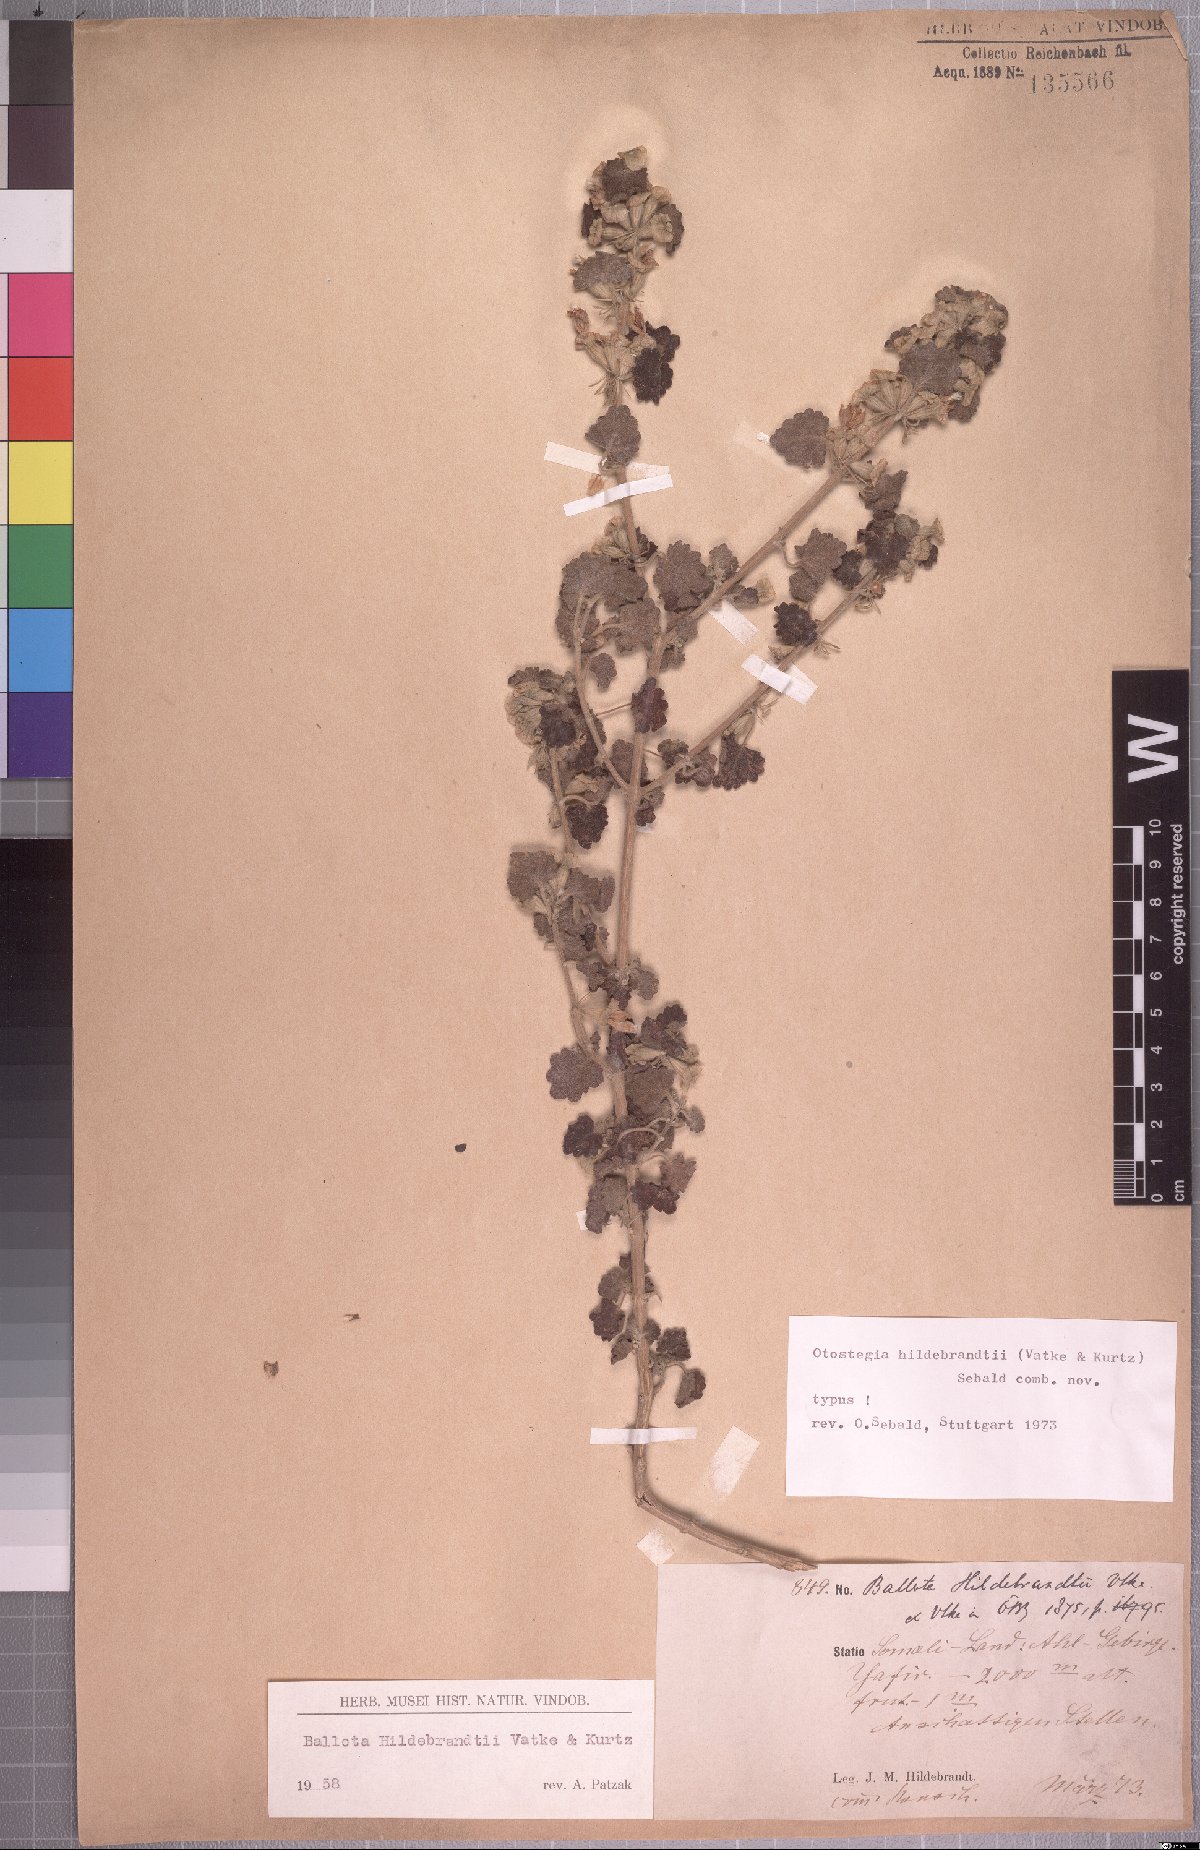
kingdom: Plantae
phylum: Tracheophyta
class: Magnoliopsida
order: Lamiales
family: Lamiaceae
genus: Otostegia
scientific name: Otostegia hildebrandtii
